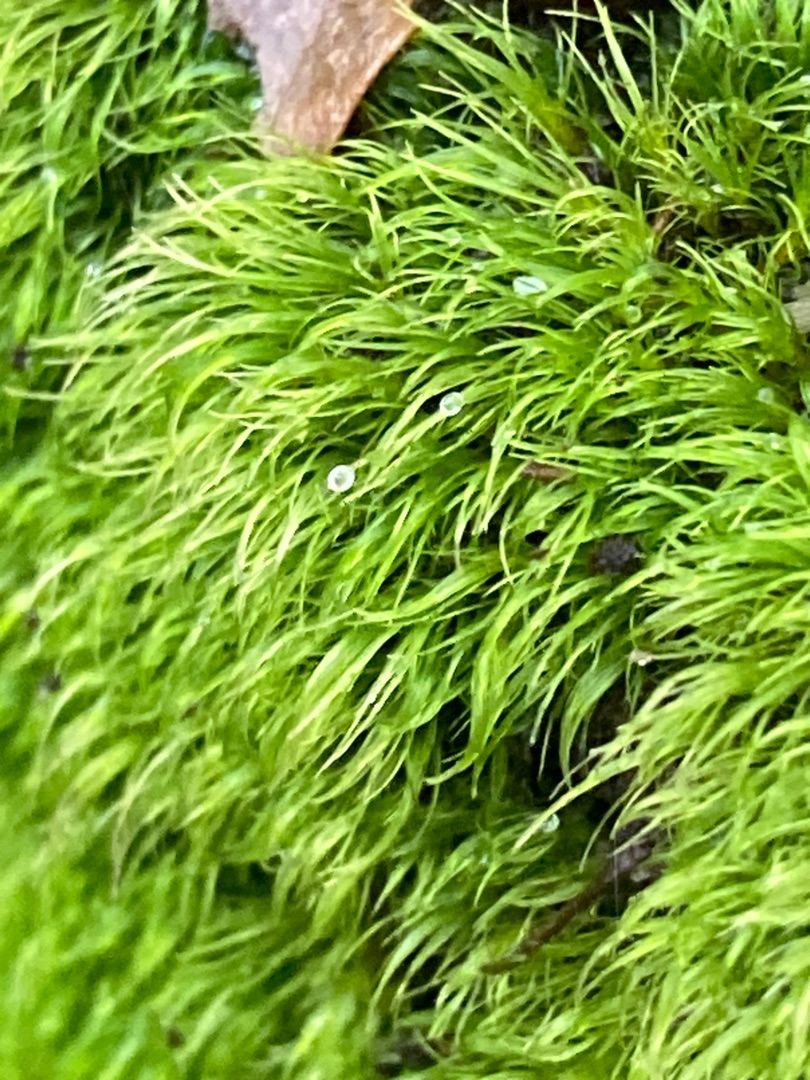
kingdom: Plantae
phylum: Bryophyta
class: Bryopsida
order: Dicranales
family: Dicranellaceae
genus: Dicranella
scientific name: Dicranella heteromalla
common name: Almindelig fløjlsmos
